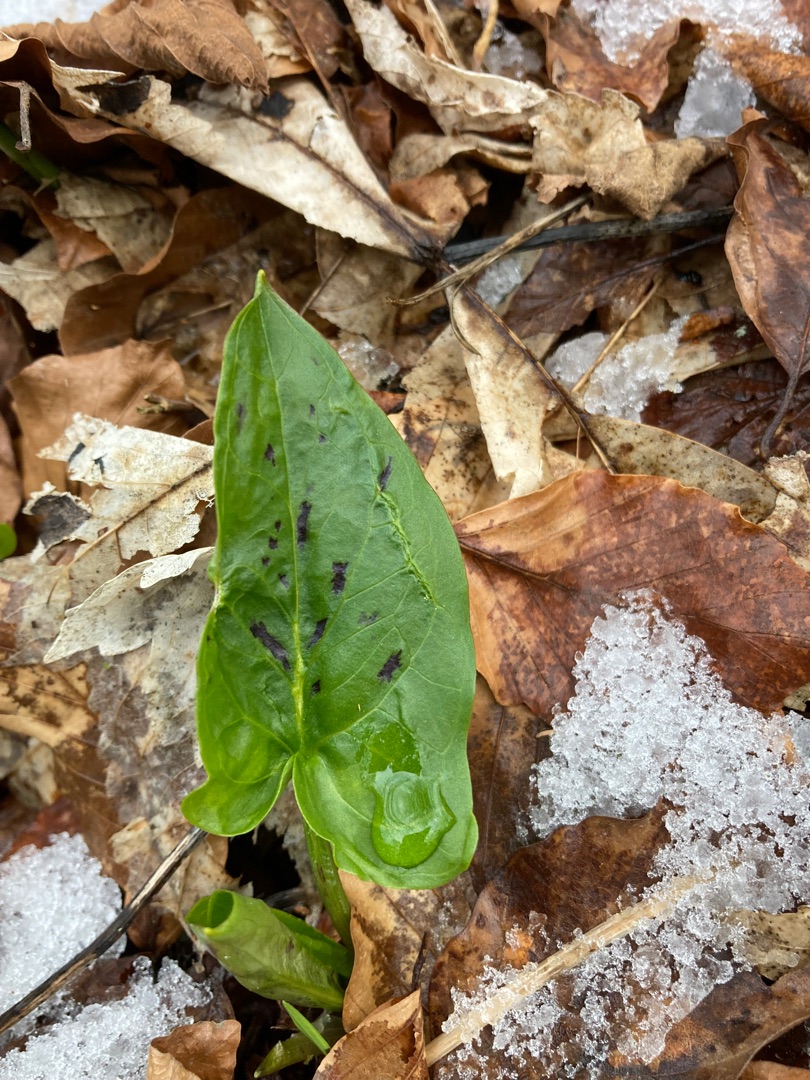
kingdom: Plantae
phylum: Tracheophyta
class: Liliopsida
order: Alismatales
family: Araceae
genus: Arum
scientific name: Arum maculatum
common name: Plettet arum
